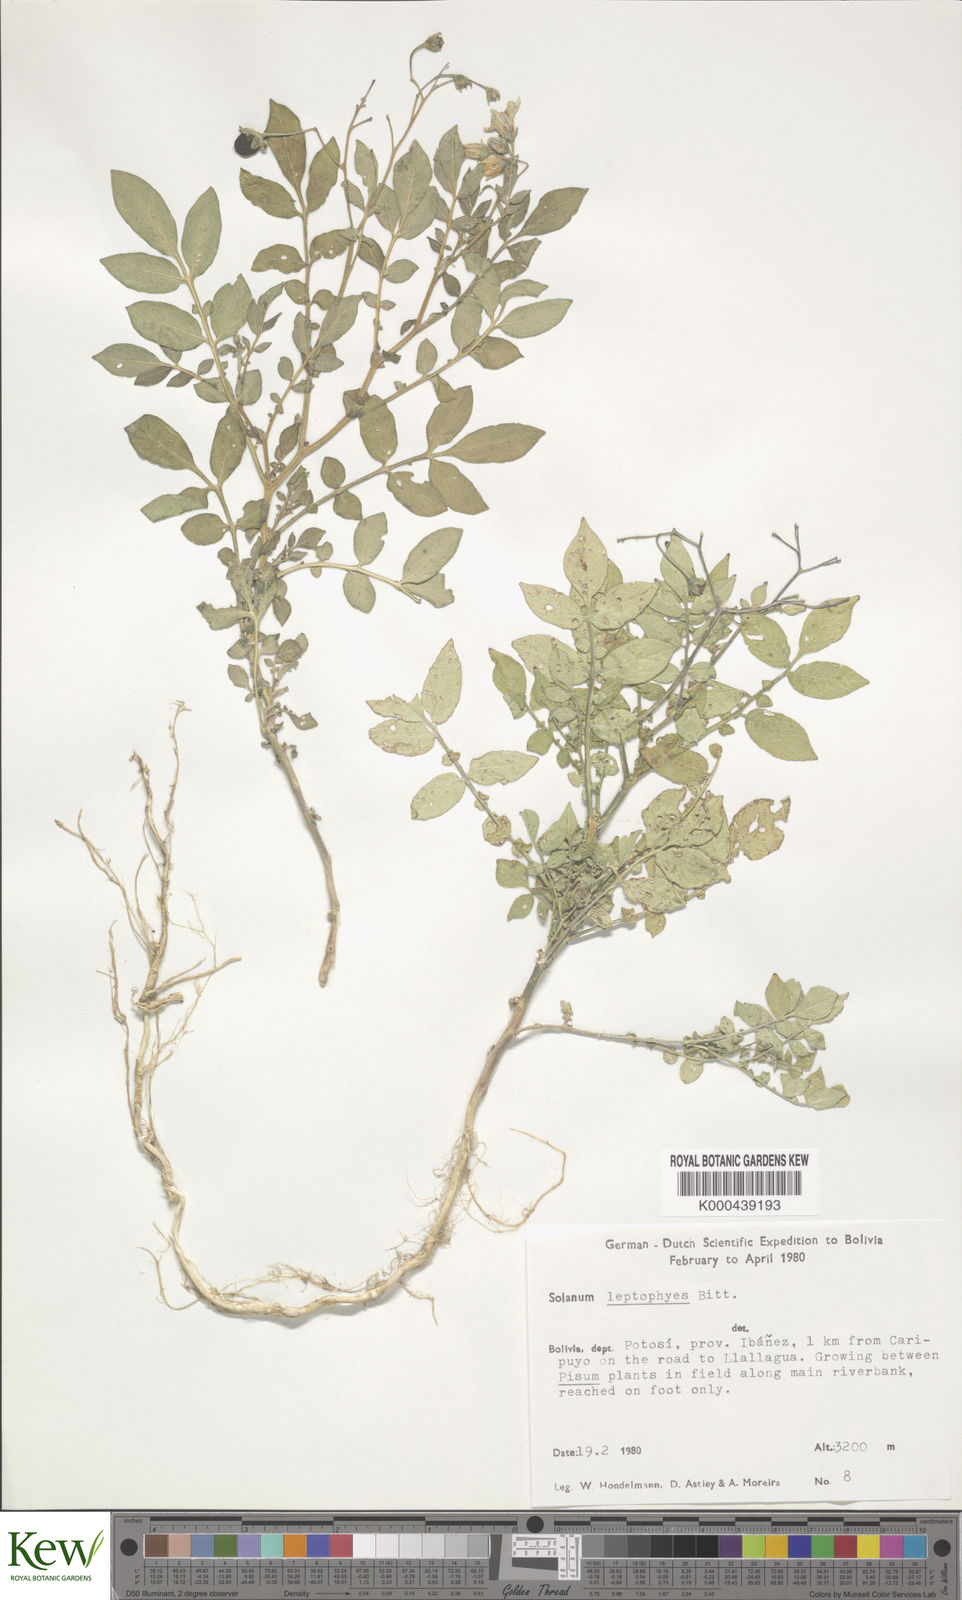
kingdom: Plantae
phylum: Tracheophyta
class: Magnoliopsida
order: Solanales
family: Solanaceae
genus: Solanum
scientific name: Solanum brevicaule
